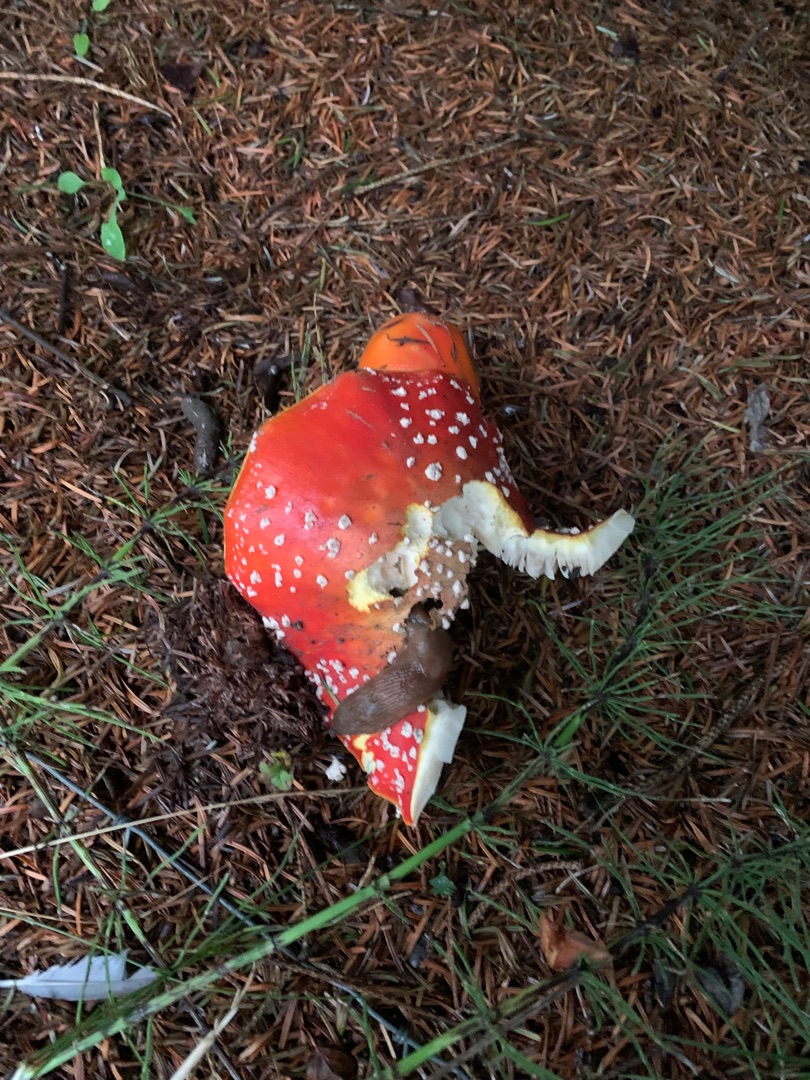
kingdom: Fungi
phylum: Basidiomycota
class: Agaricomycetes
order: Agaricales
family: Amanitaceae
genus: Amanita
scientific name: Amanita muscaria
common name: Rød fluesvamp
